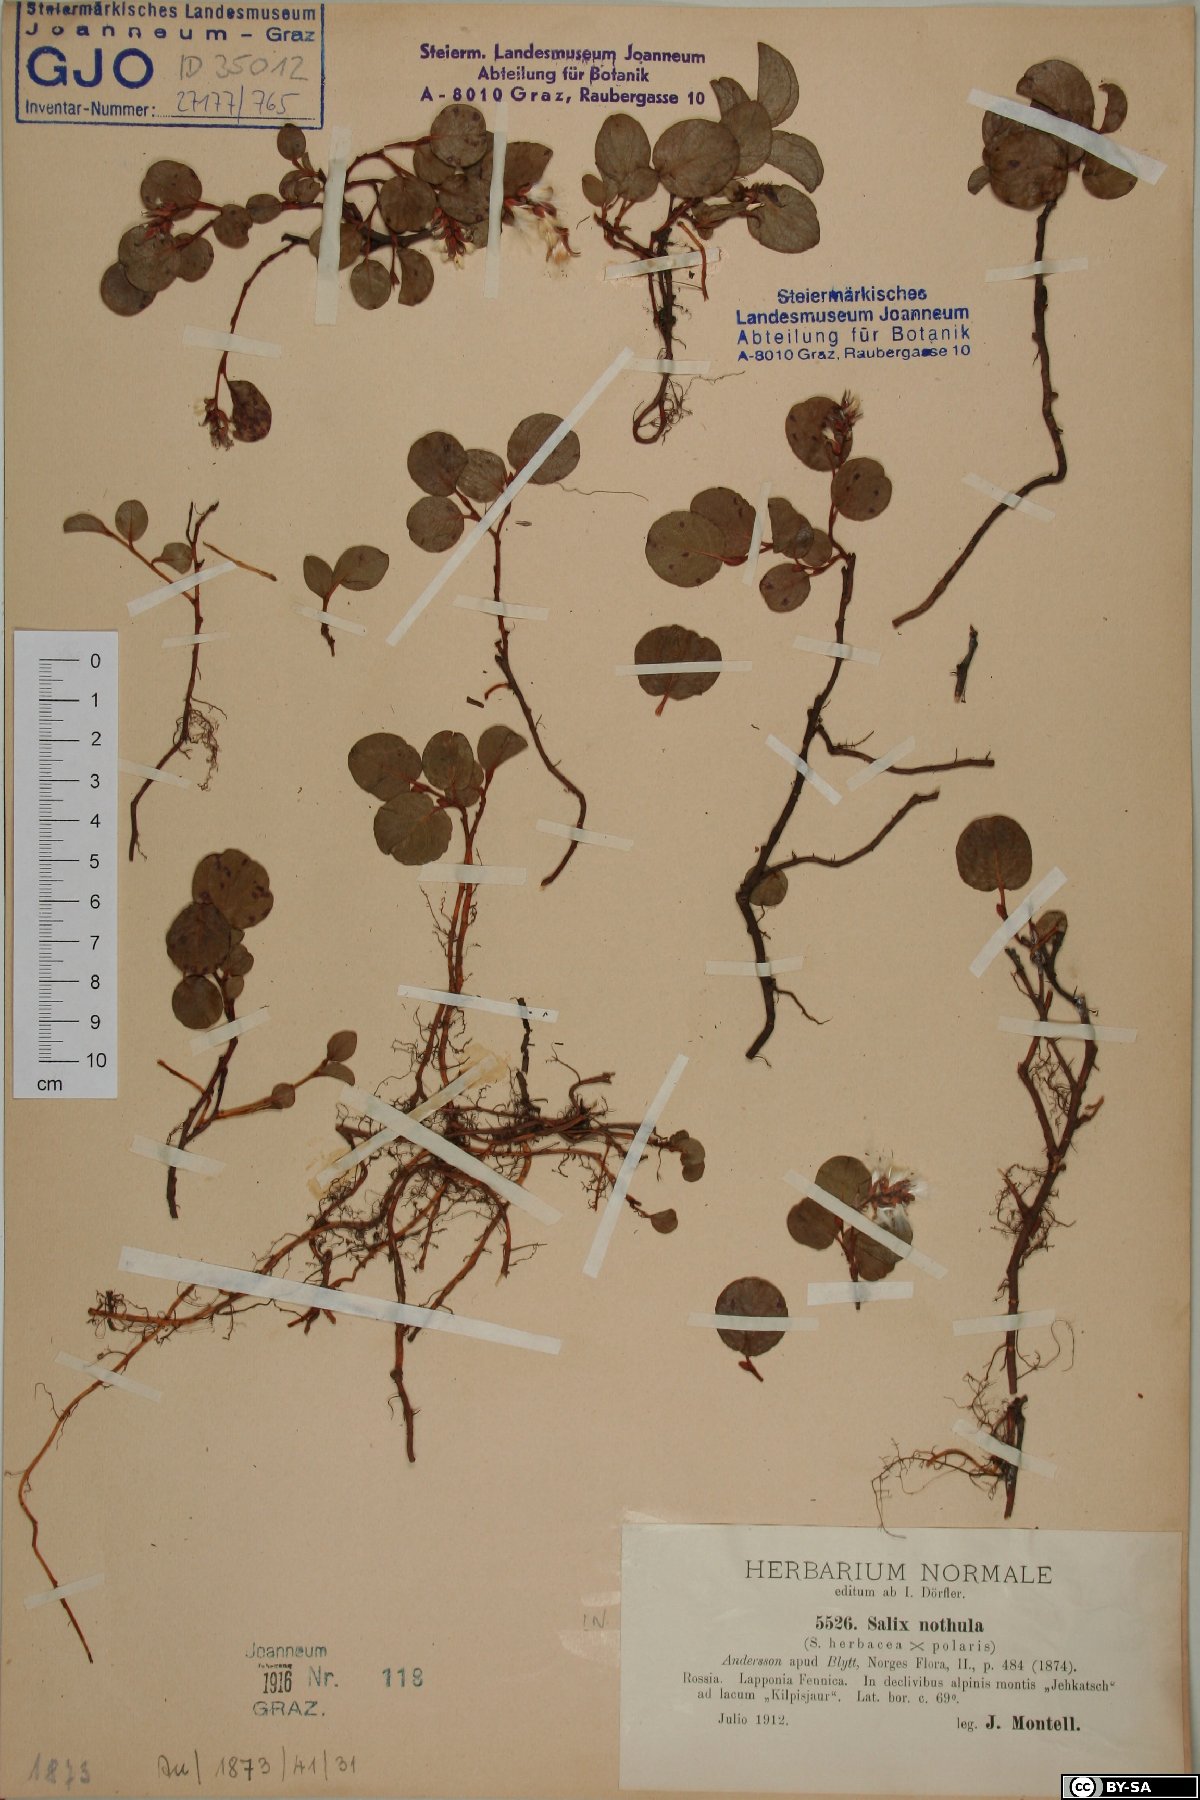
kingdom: Plantae
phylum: Tracheophyta
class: Magnoliopsida
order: Malpighiales
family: Salicaceae
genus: Salix
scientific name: Salix notha
